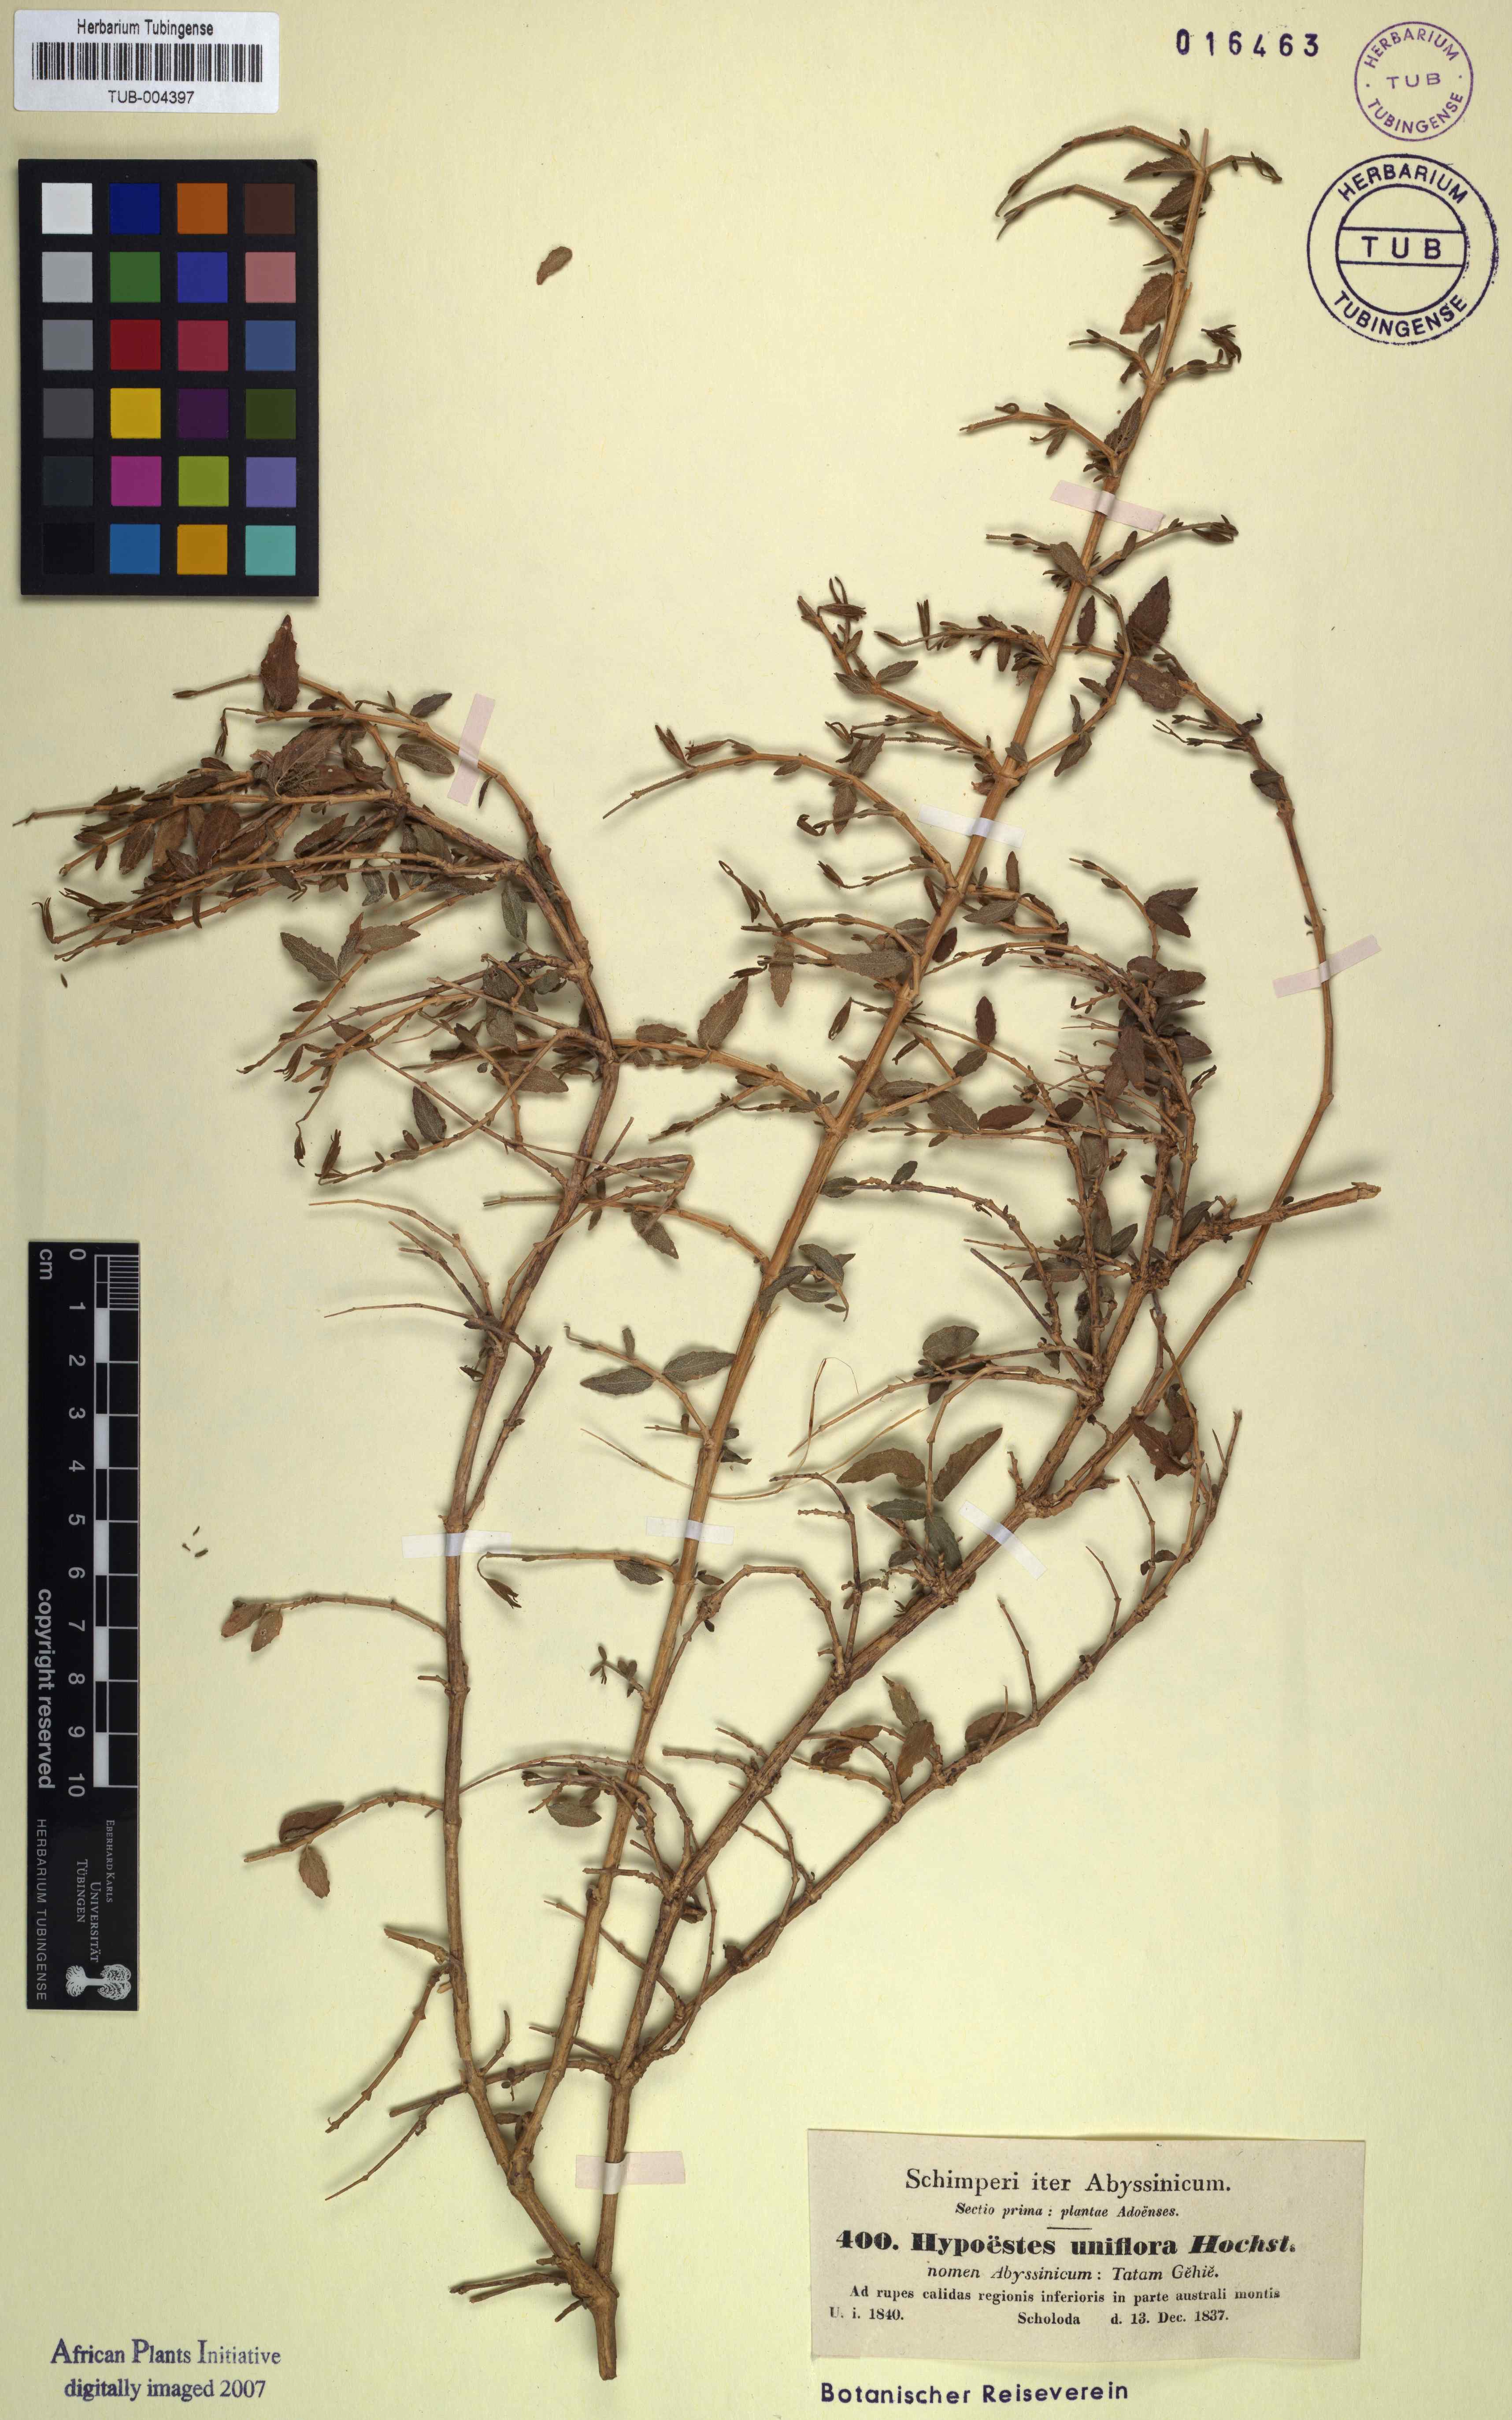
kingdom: Plantae
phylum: Tracheophyta
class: Magnoliopsida
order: Lamiales
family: Acanthaceae
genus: Hypoestes
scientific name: Hypoestes triflora
